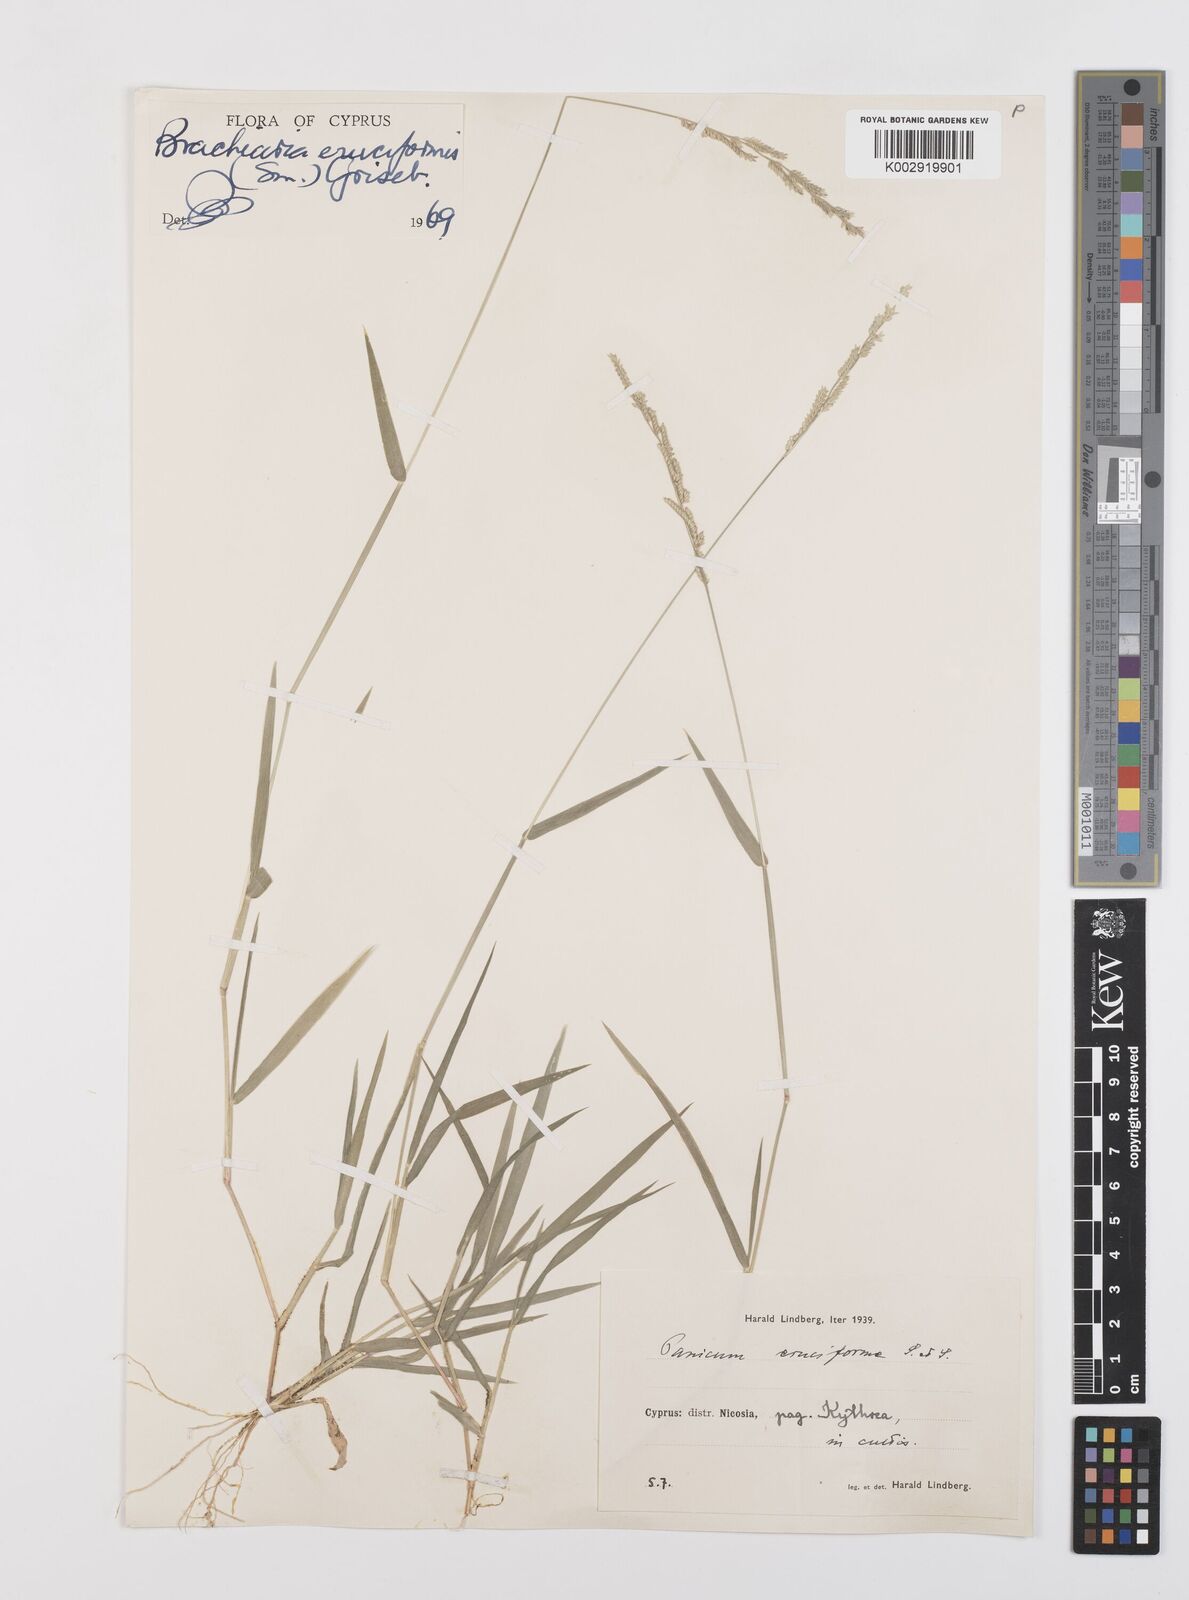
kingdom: Plantae
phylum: Tracheophyta
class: Liliopsida
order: Poales
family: Poaceae
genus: Moorochloa
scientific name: Moorochloa eruciformis
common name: Sweet signalgrass
